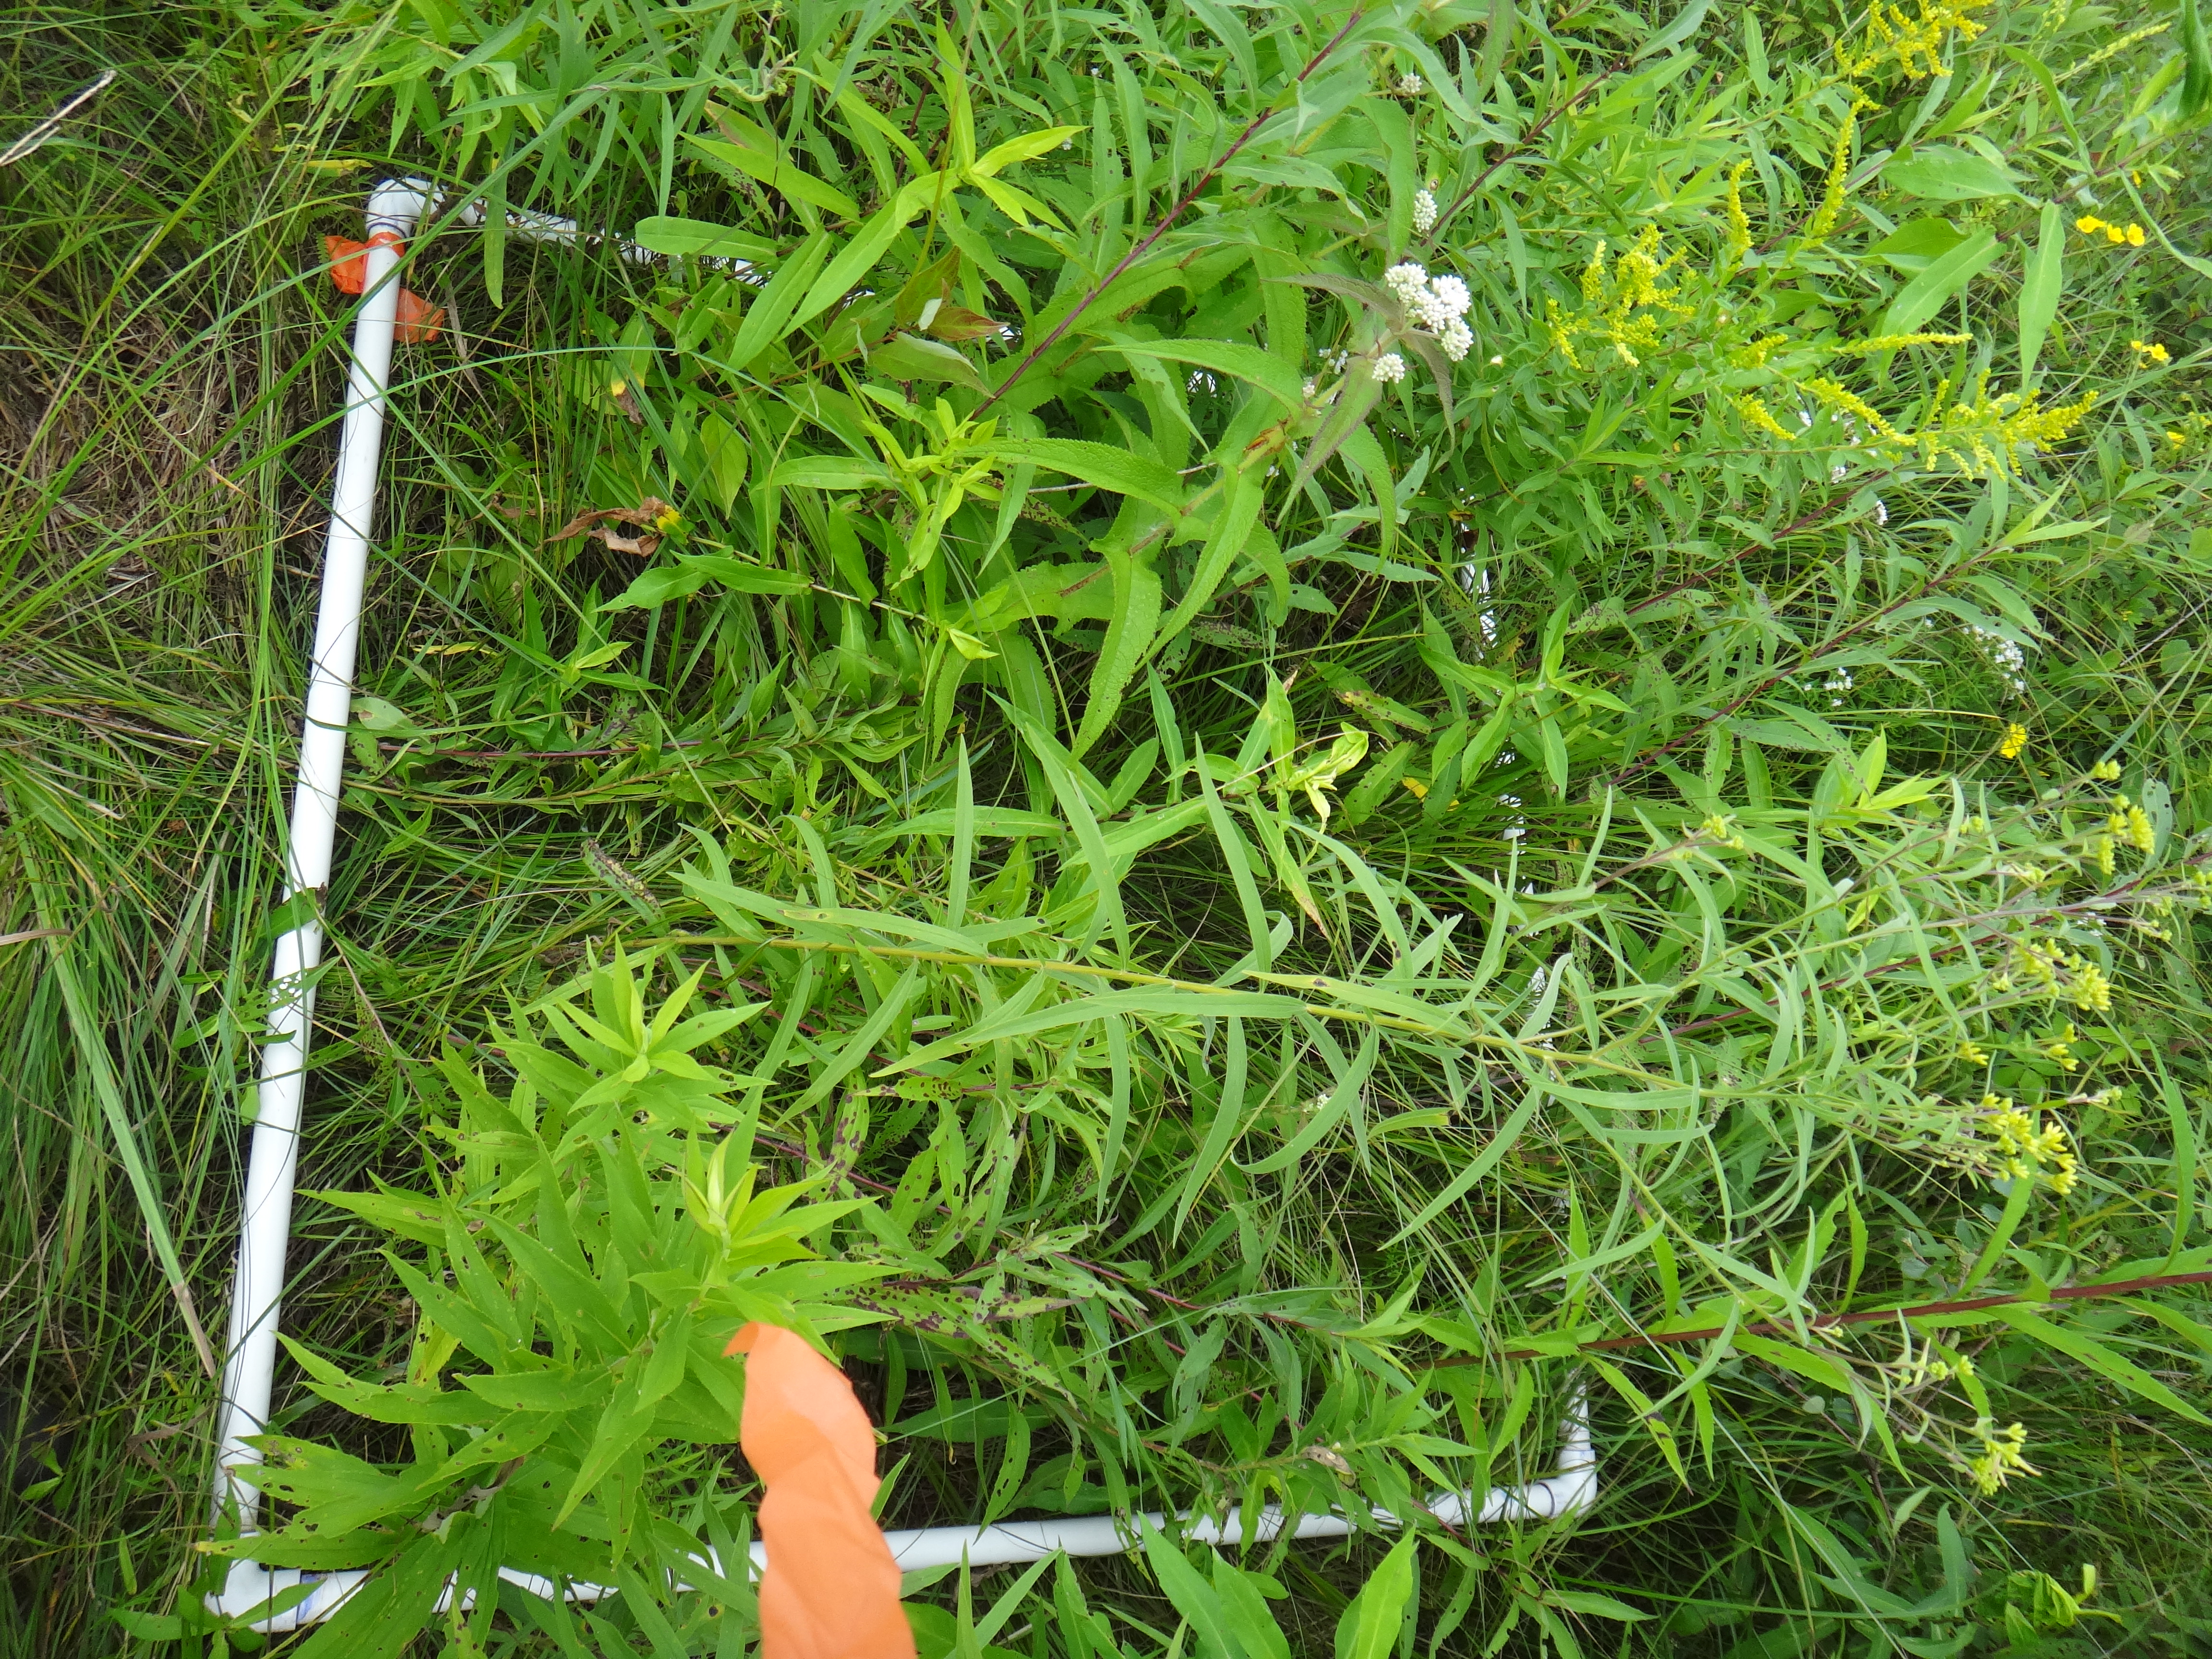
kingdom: Plantae
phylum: Tracheophyta
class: Magnoliopsida
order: Asterales
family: Asteraceae
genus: Euthamia
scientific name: Euthamia graminifolia
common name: Common goldentop
